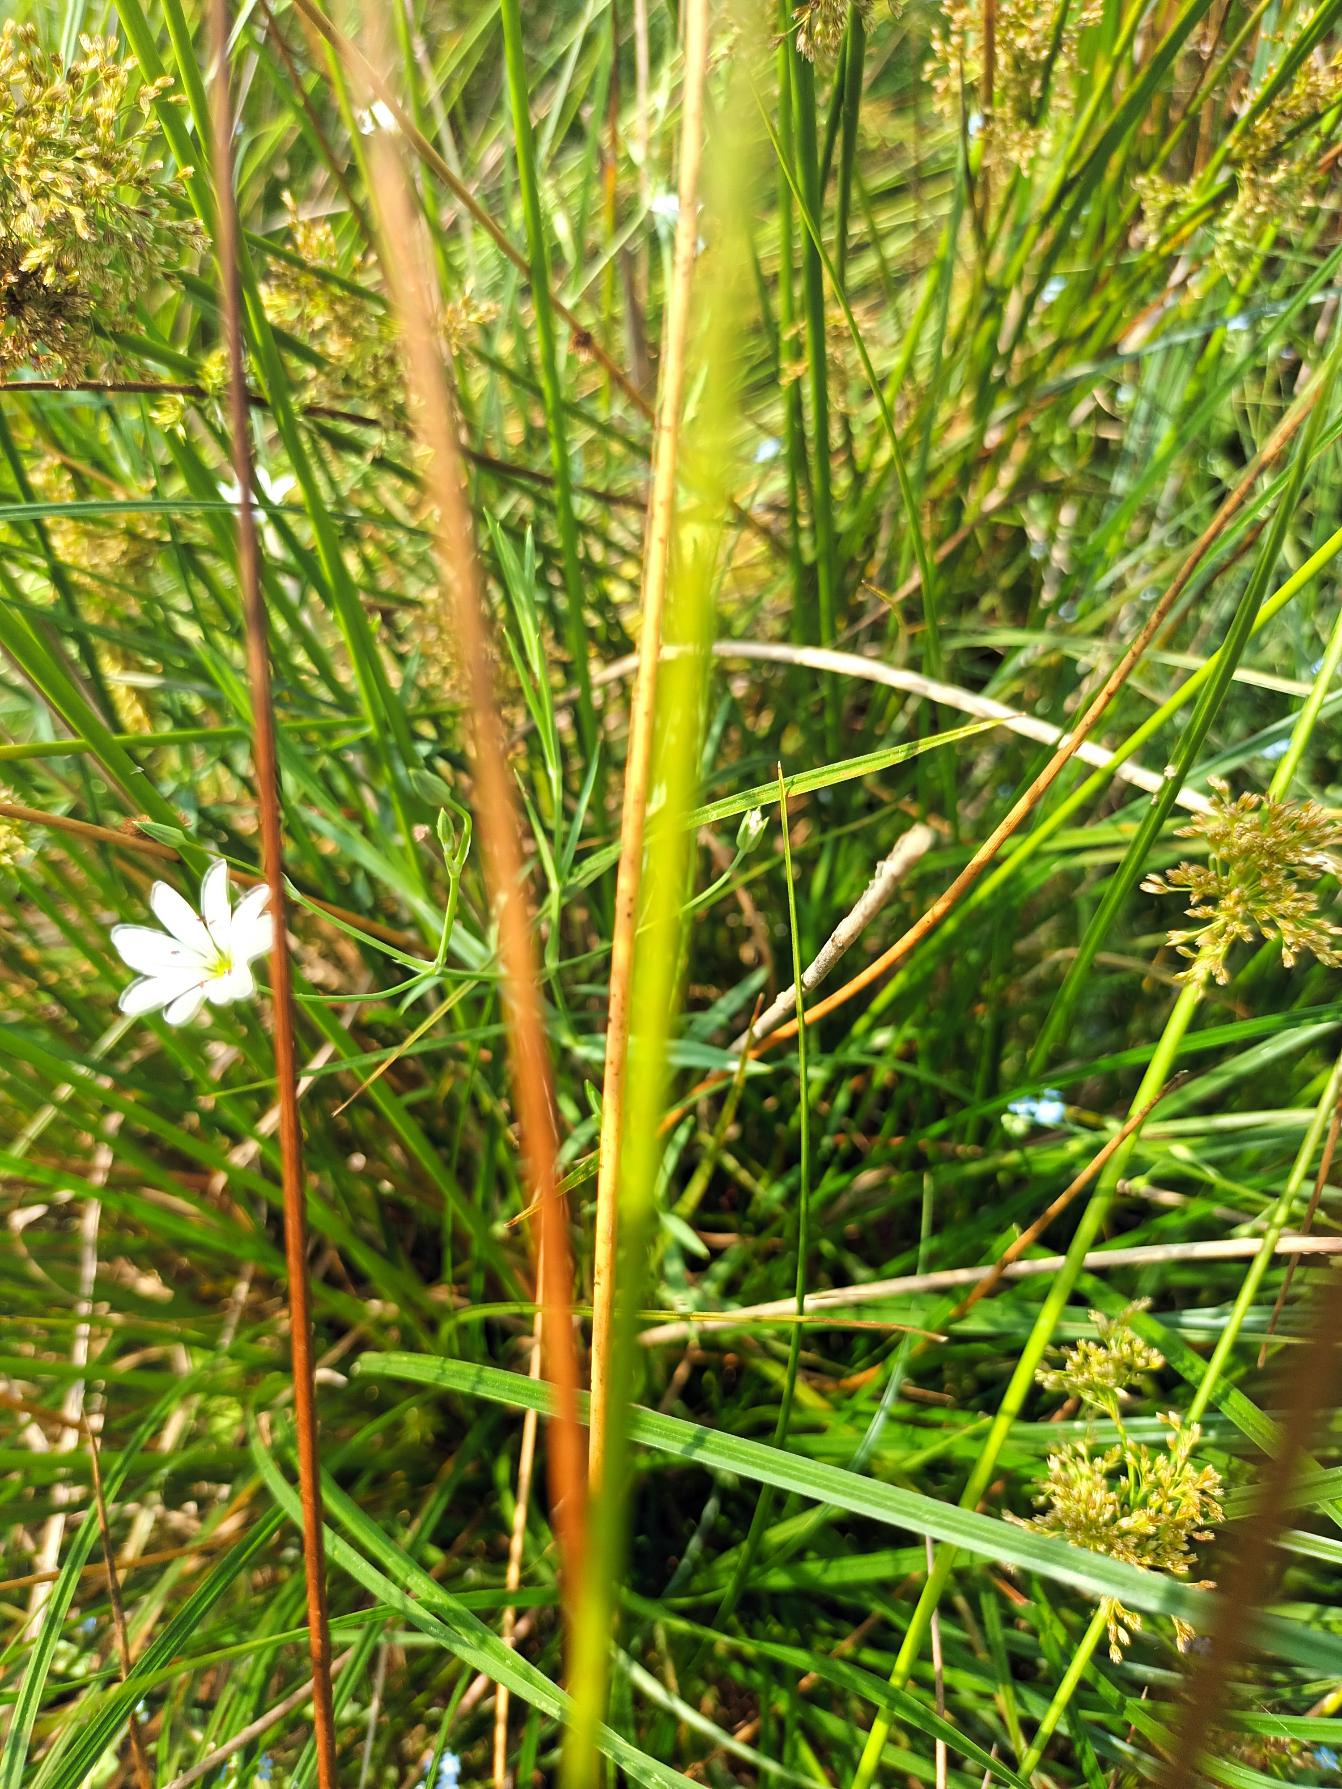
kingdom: Plantae
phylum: Tracheophyta
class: Magnoliopsida
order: Caryophyllales
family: Caryophyllaceae
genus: Stellaria
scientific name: Stellaria palustris
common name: Kær-fladstjerne
